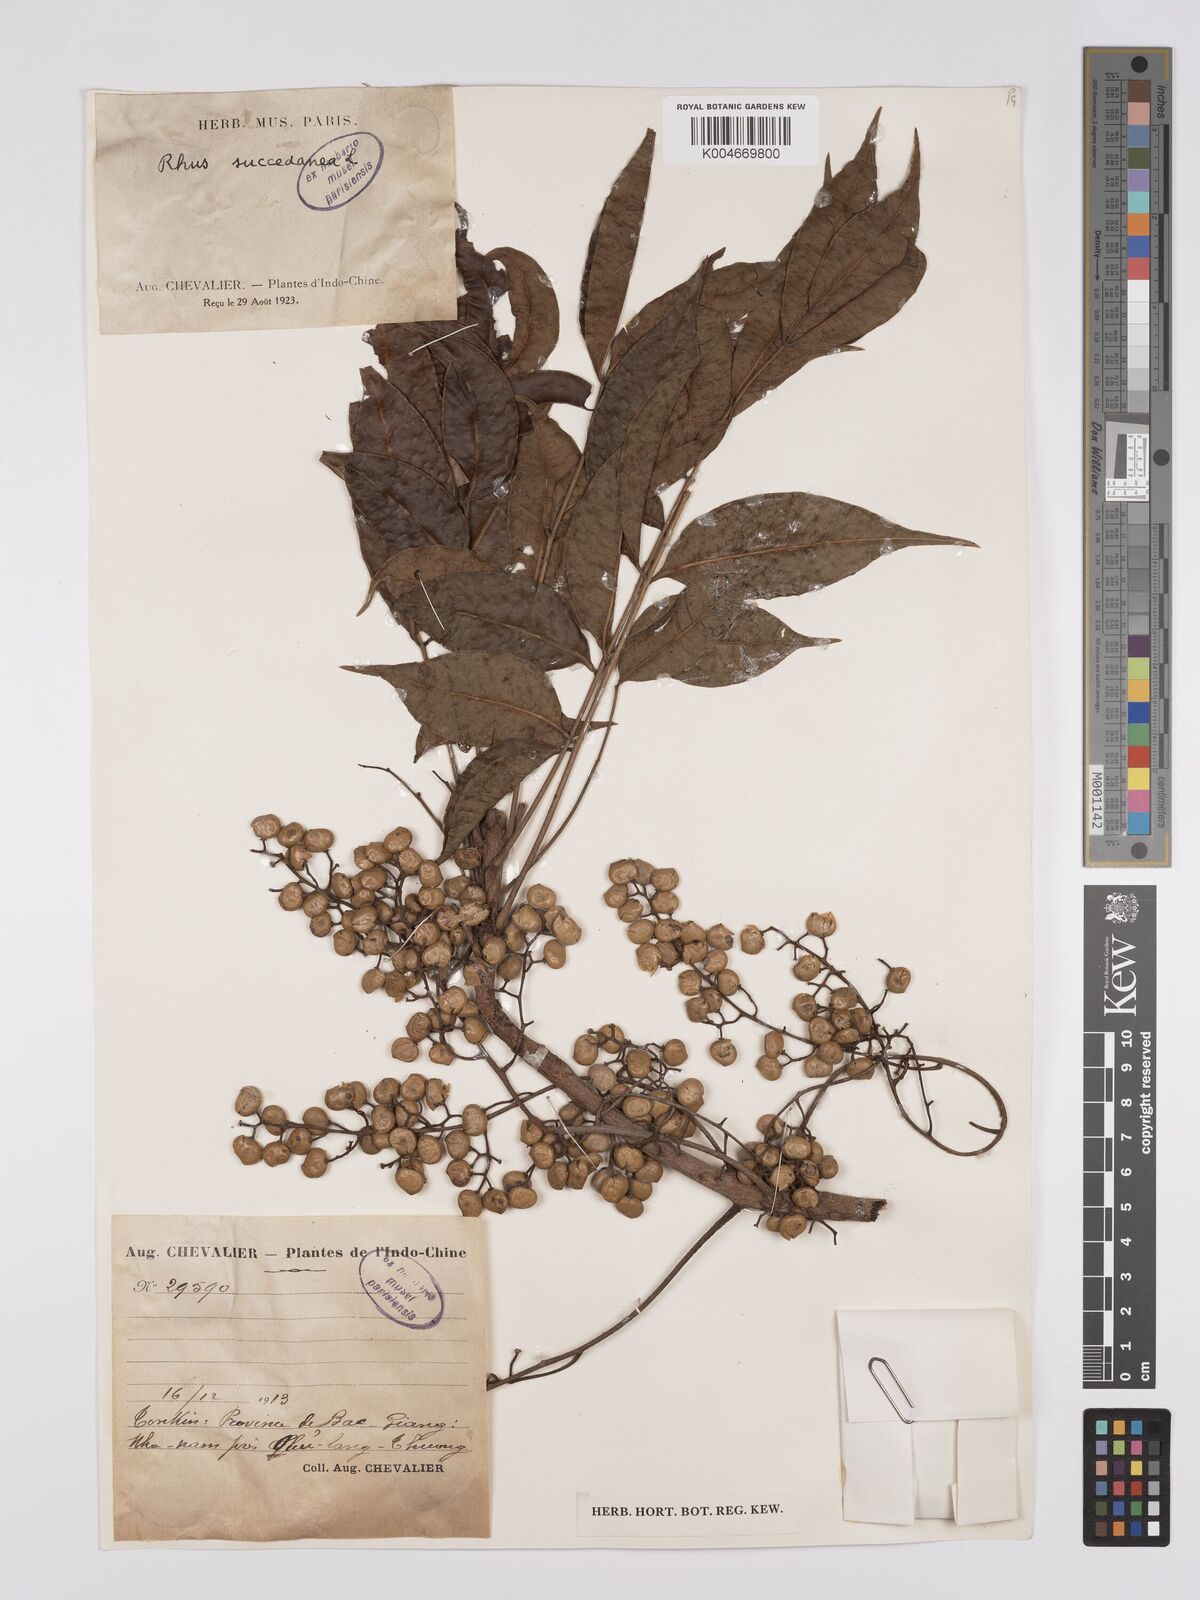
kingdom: Plantae
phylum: Tracheophyta
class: Magnoliopsida
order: Sapindales
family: Anacardiaceae
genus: Toxicodendron
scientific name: Toxicodendron succedaneum
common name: Wax tree
